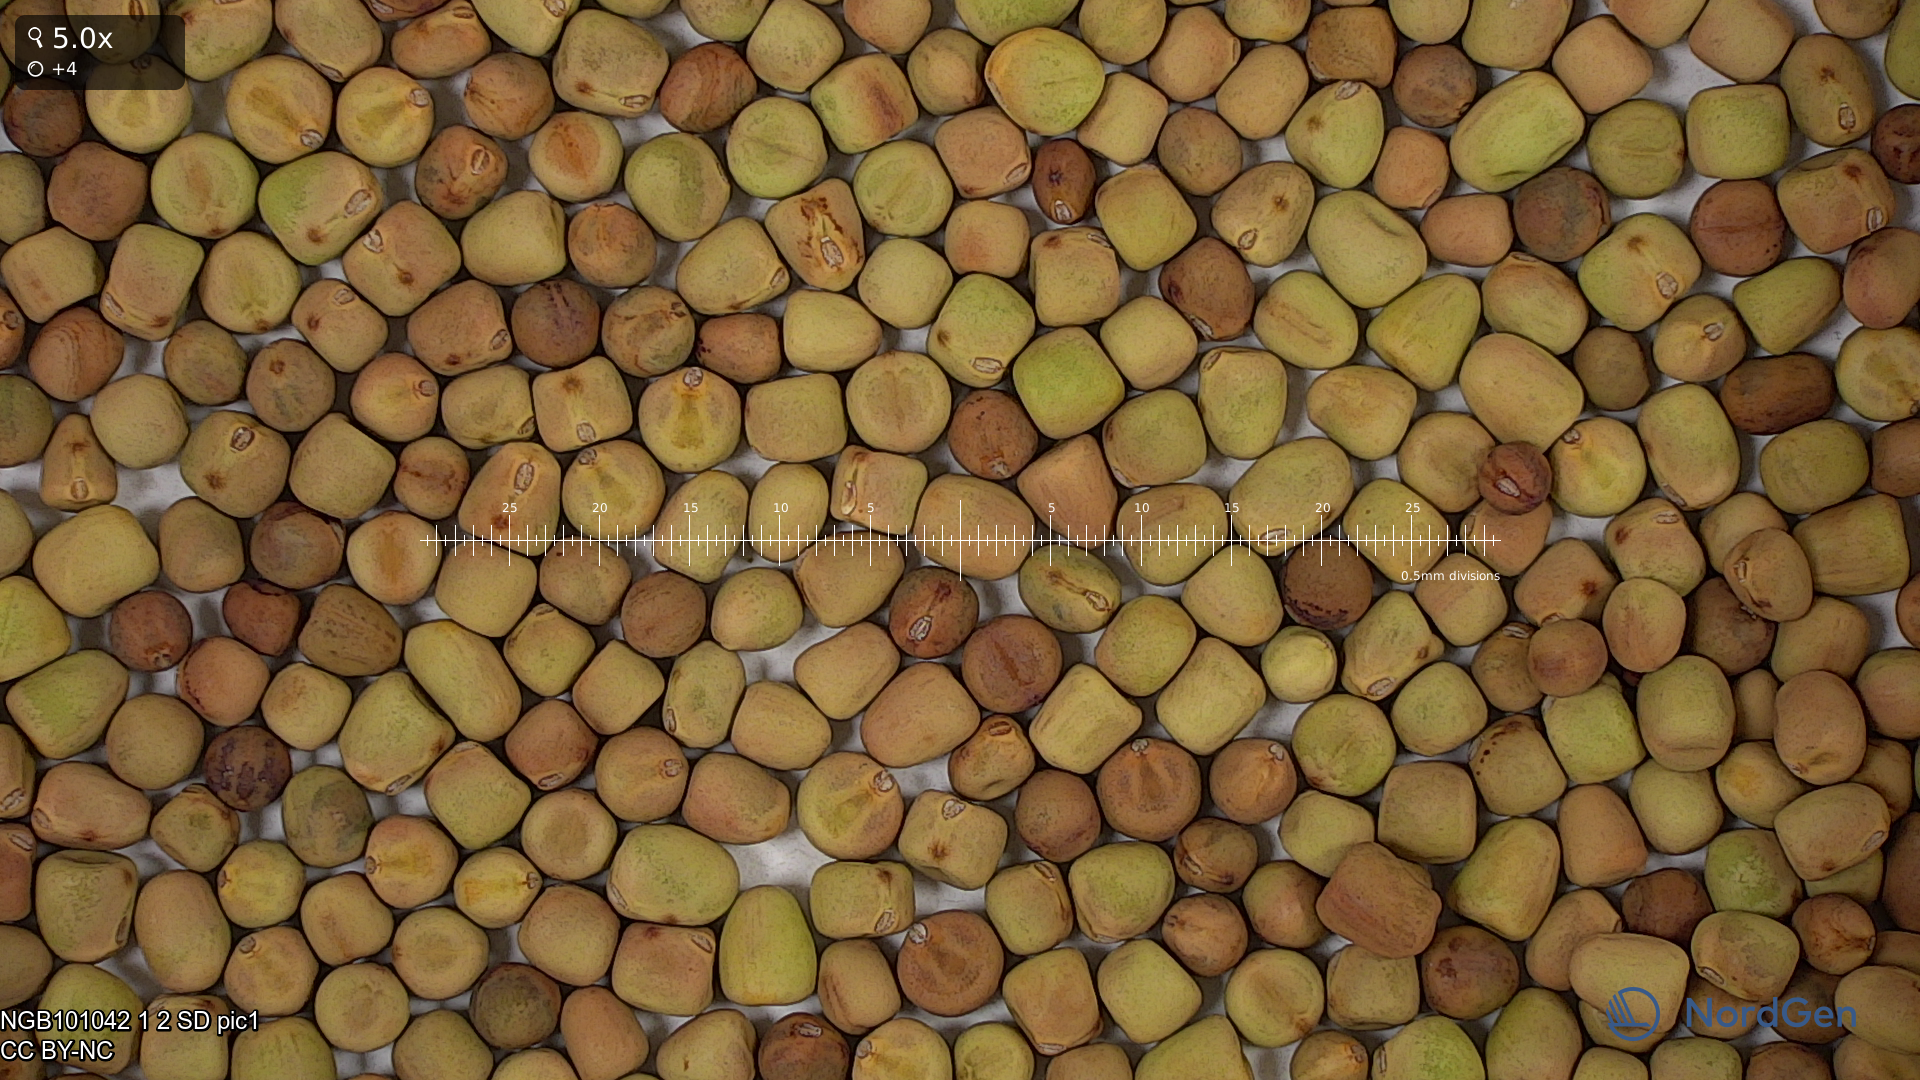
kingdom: Plantae
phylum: Tracheophyta
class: Magnoliopsida
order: Fabales
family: Fabaceae
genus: Lathyrus
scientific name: Lathyrus oleraceus
